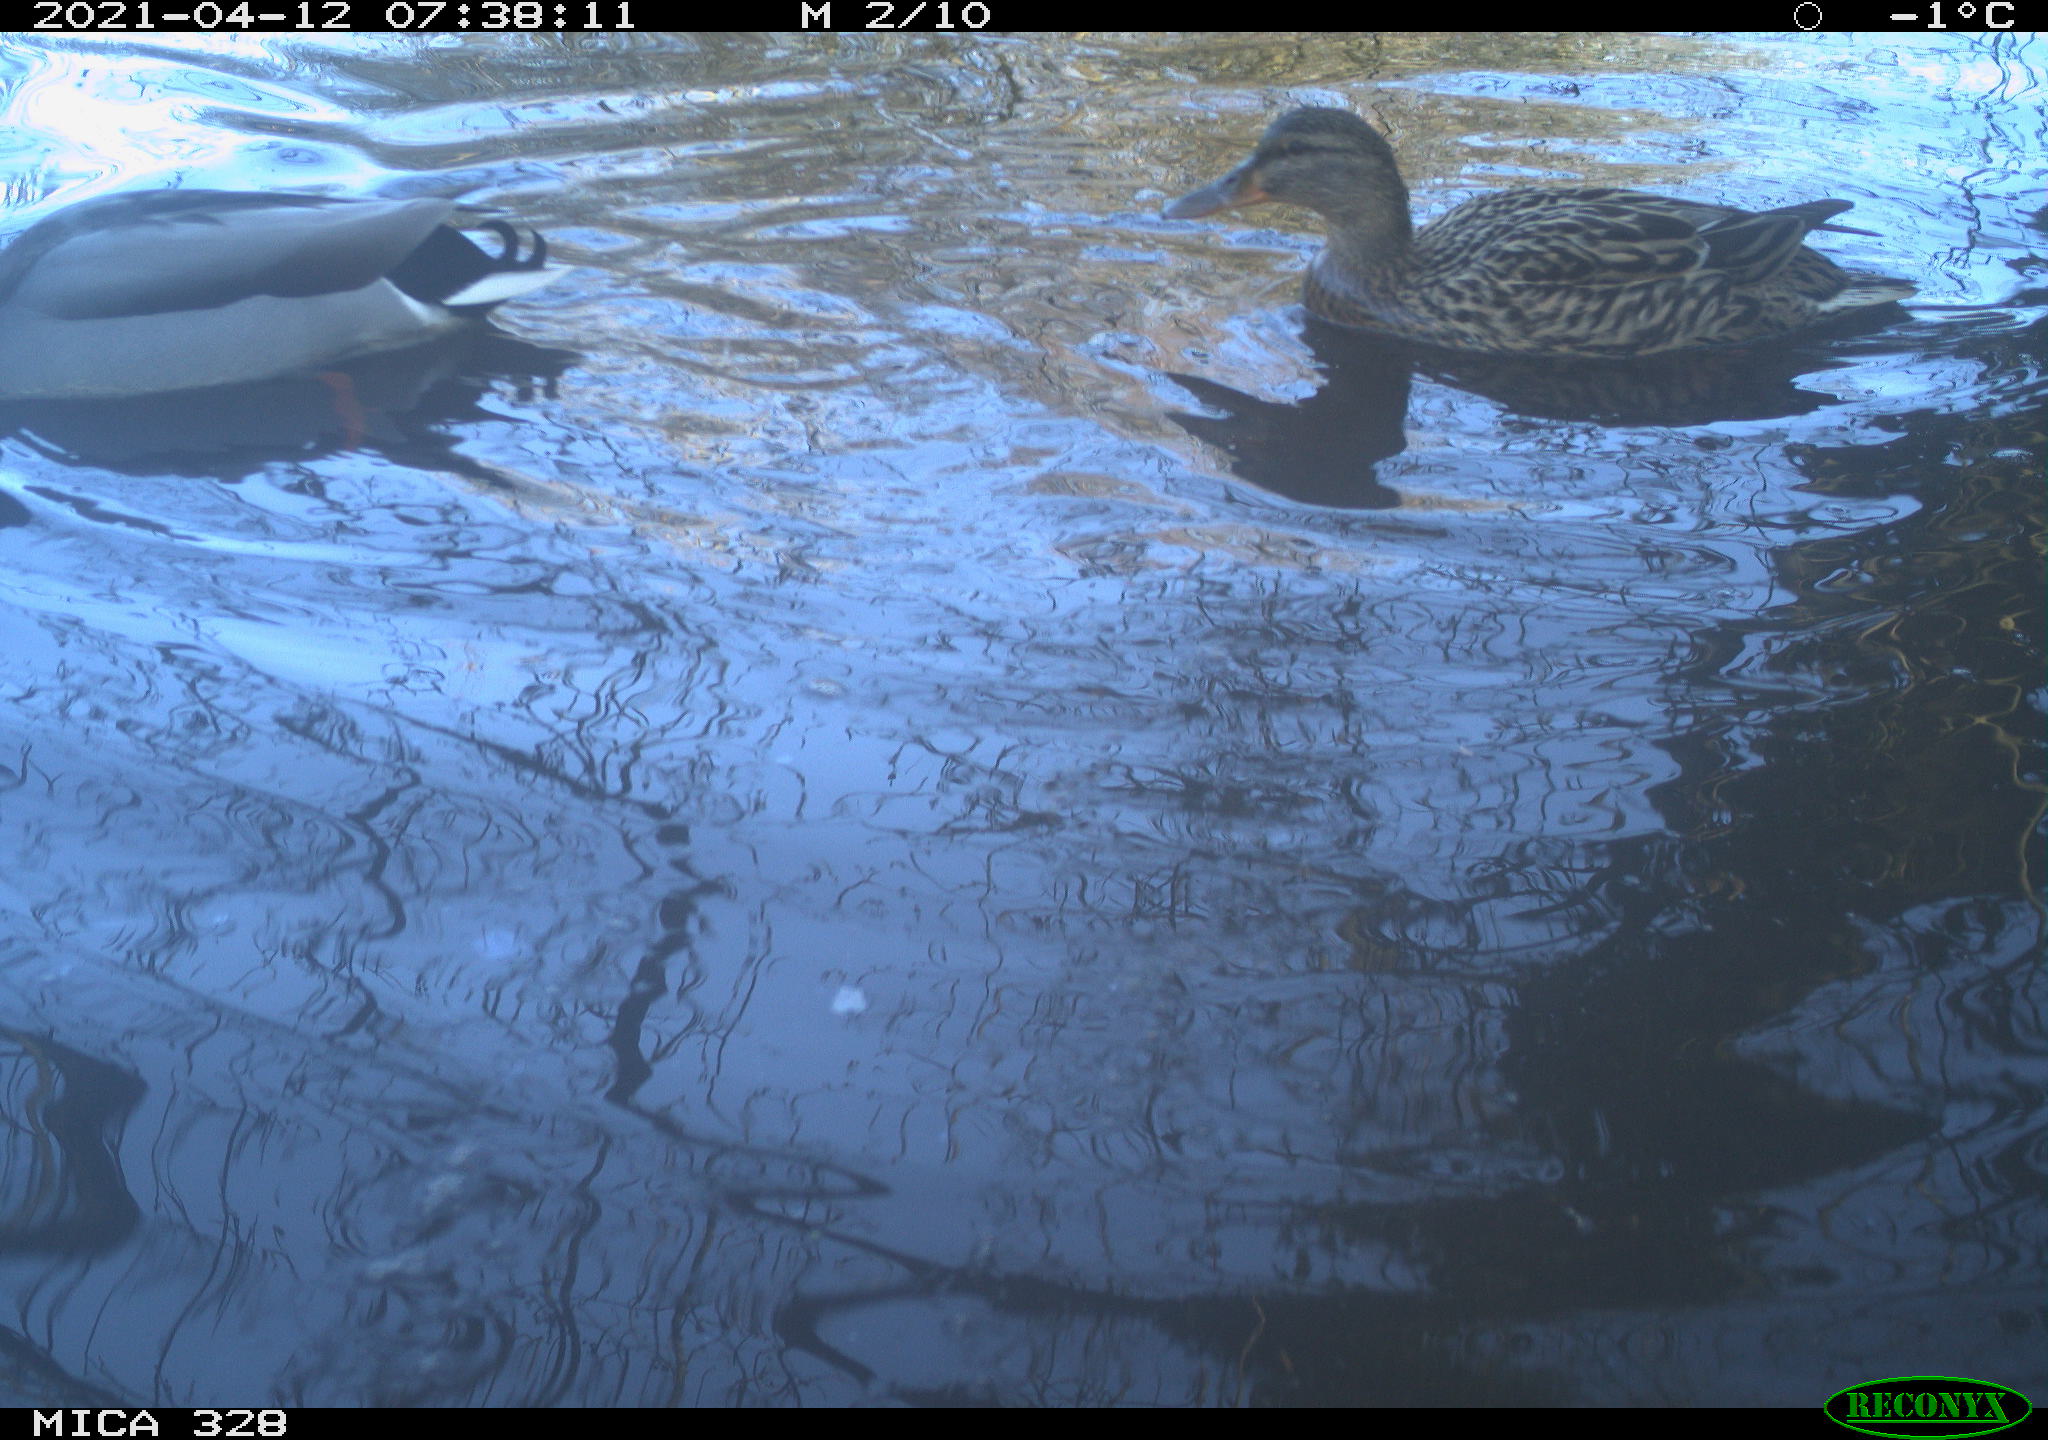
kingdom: Animalia
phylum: Chordata
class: Aves
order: Anseriformes
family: Anatidae
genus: Anas
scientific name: Anas platyrhynchos
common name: Mallard
